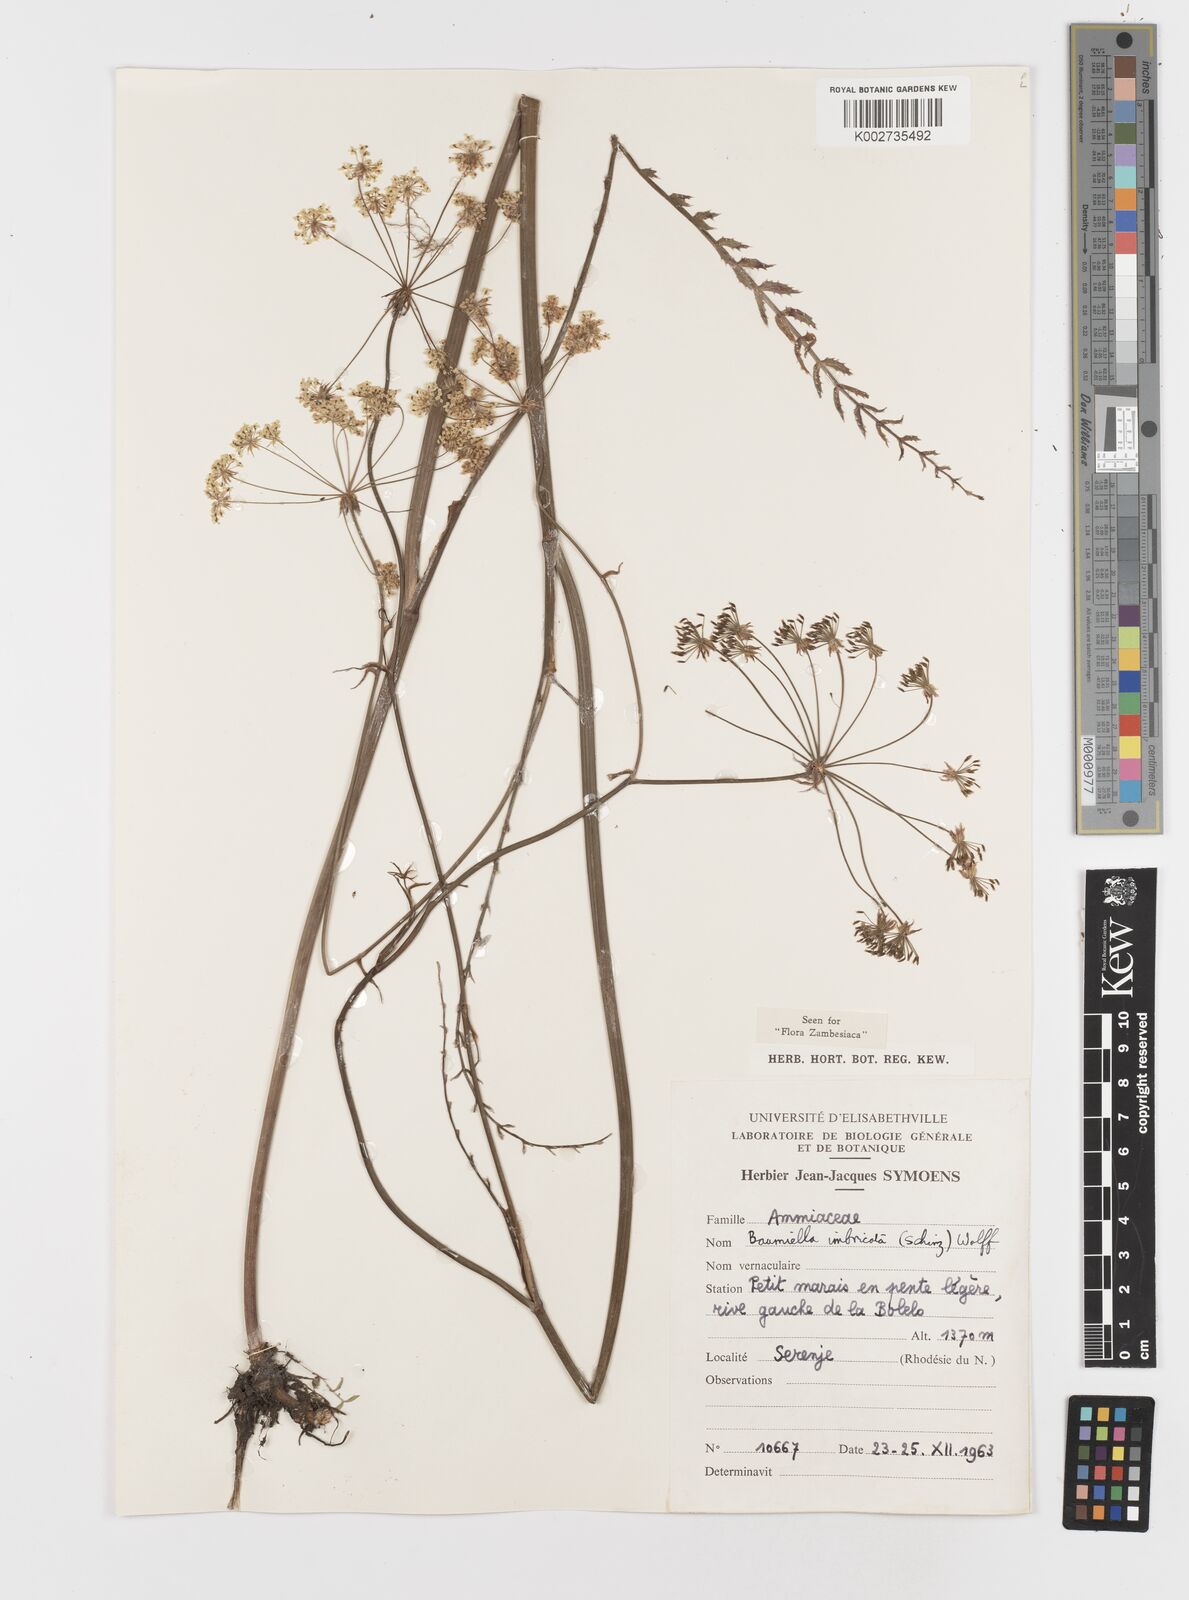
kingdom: Plantae
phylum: Tracheophyta
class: Magnoliopsida
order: Apiales
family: Apiaceae
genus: Berula
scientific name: Berula imbricata
